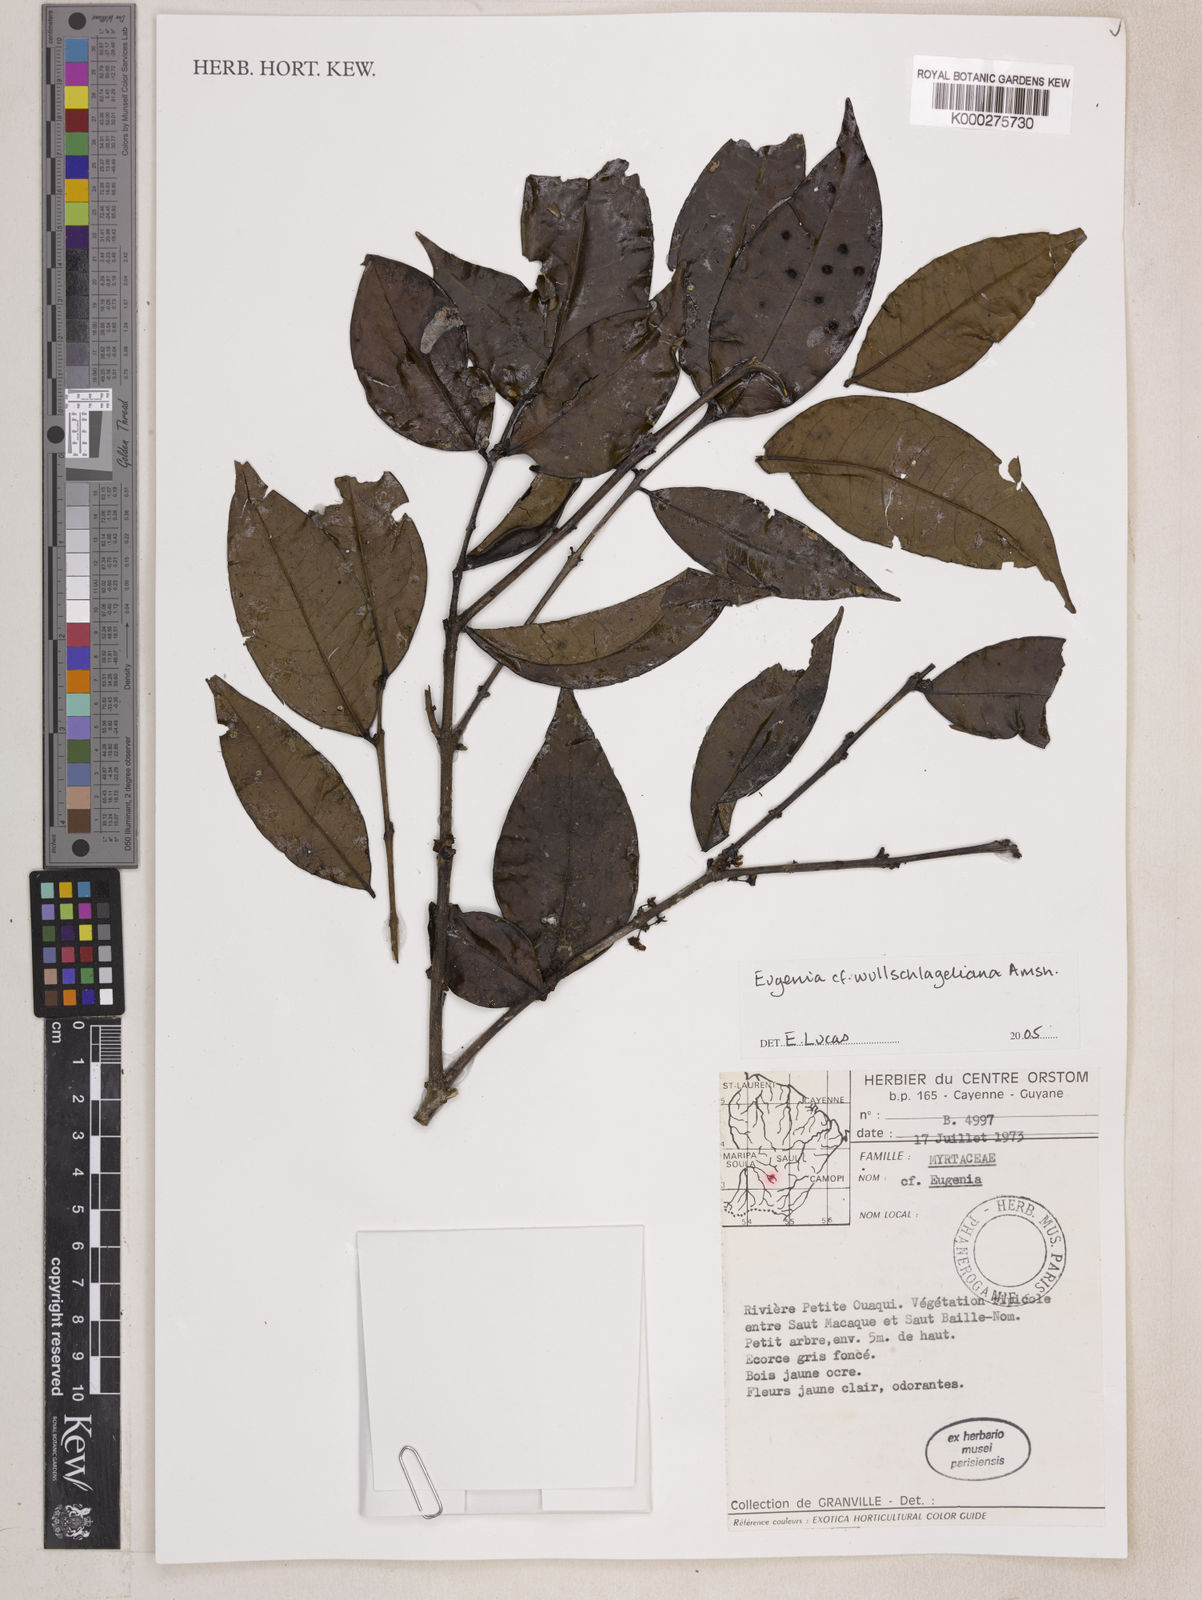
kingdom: Plantae
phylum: Tracheophyta
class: Magnoliopsida
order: Myrtales
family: Myrtaceae
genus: Eugenia
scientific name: Eugenia
